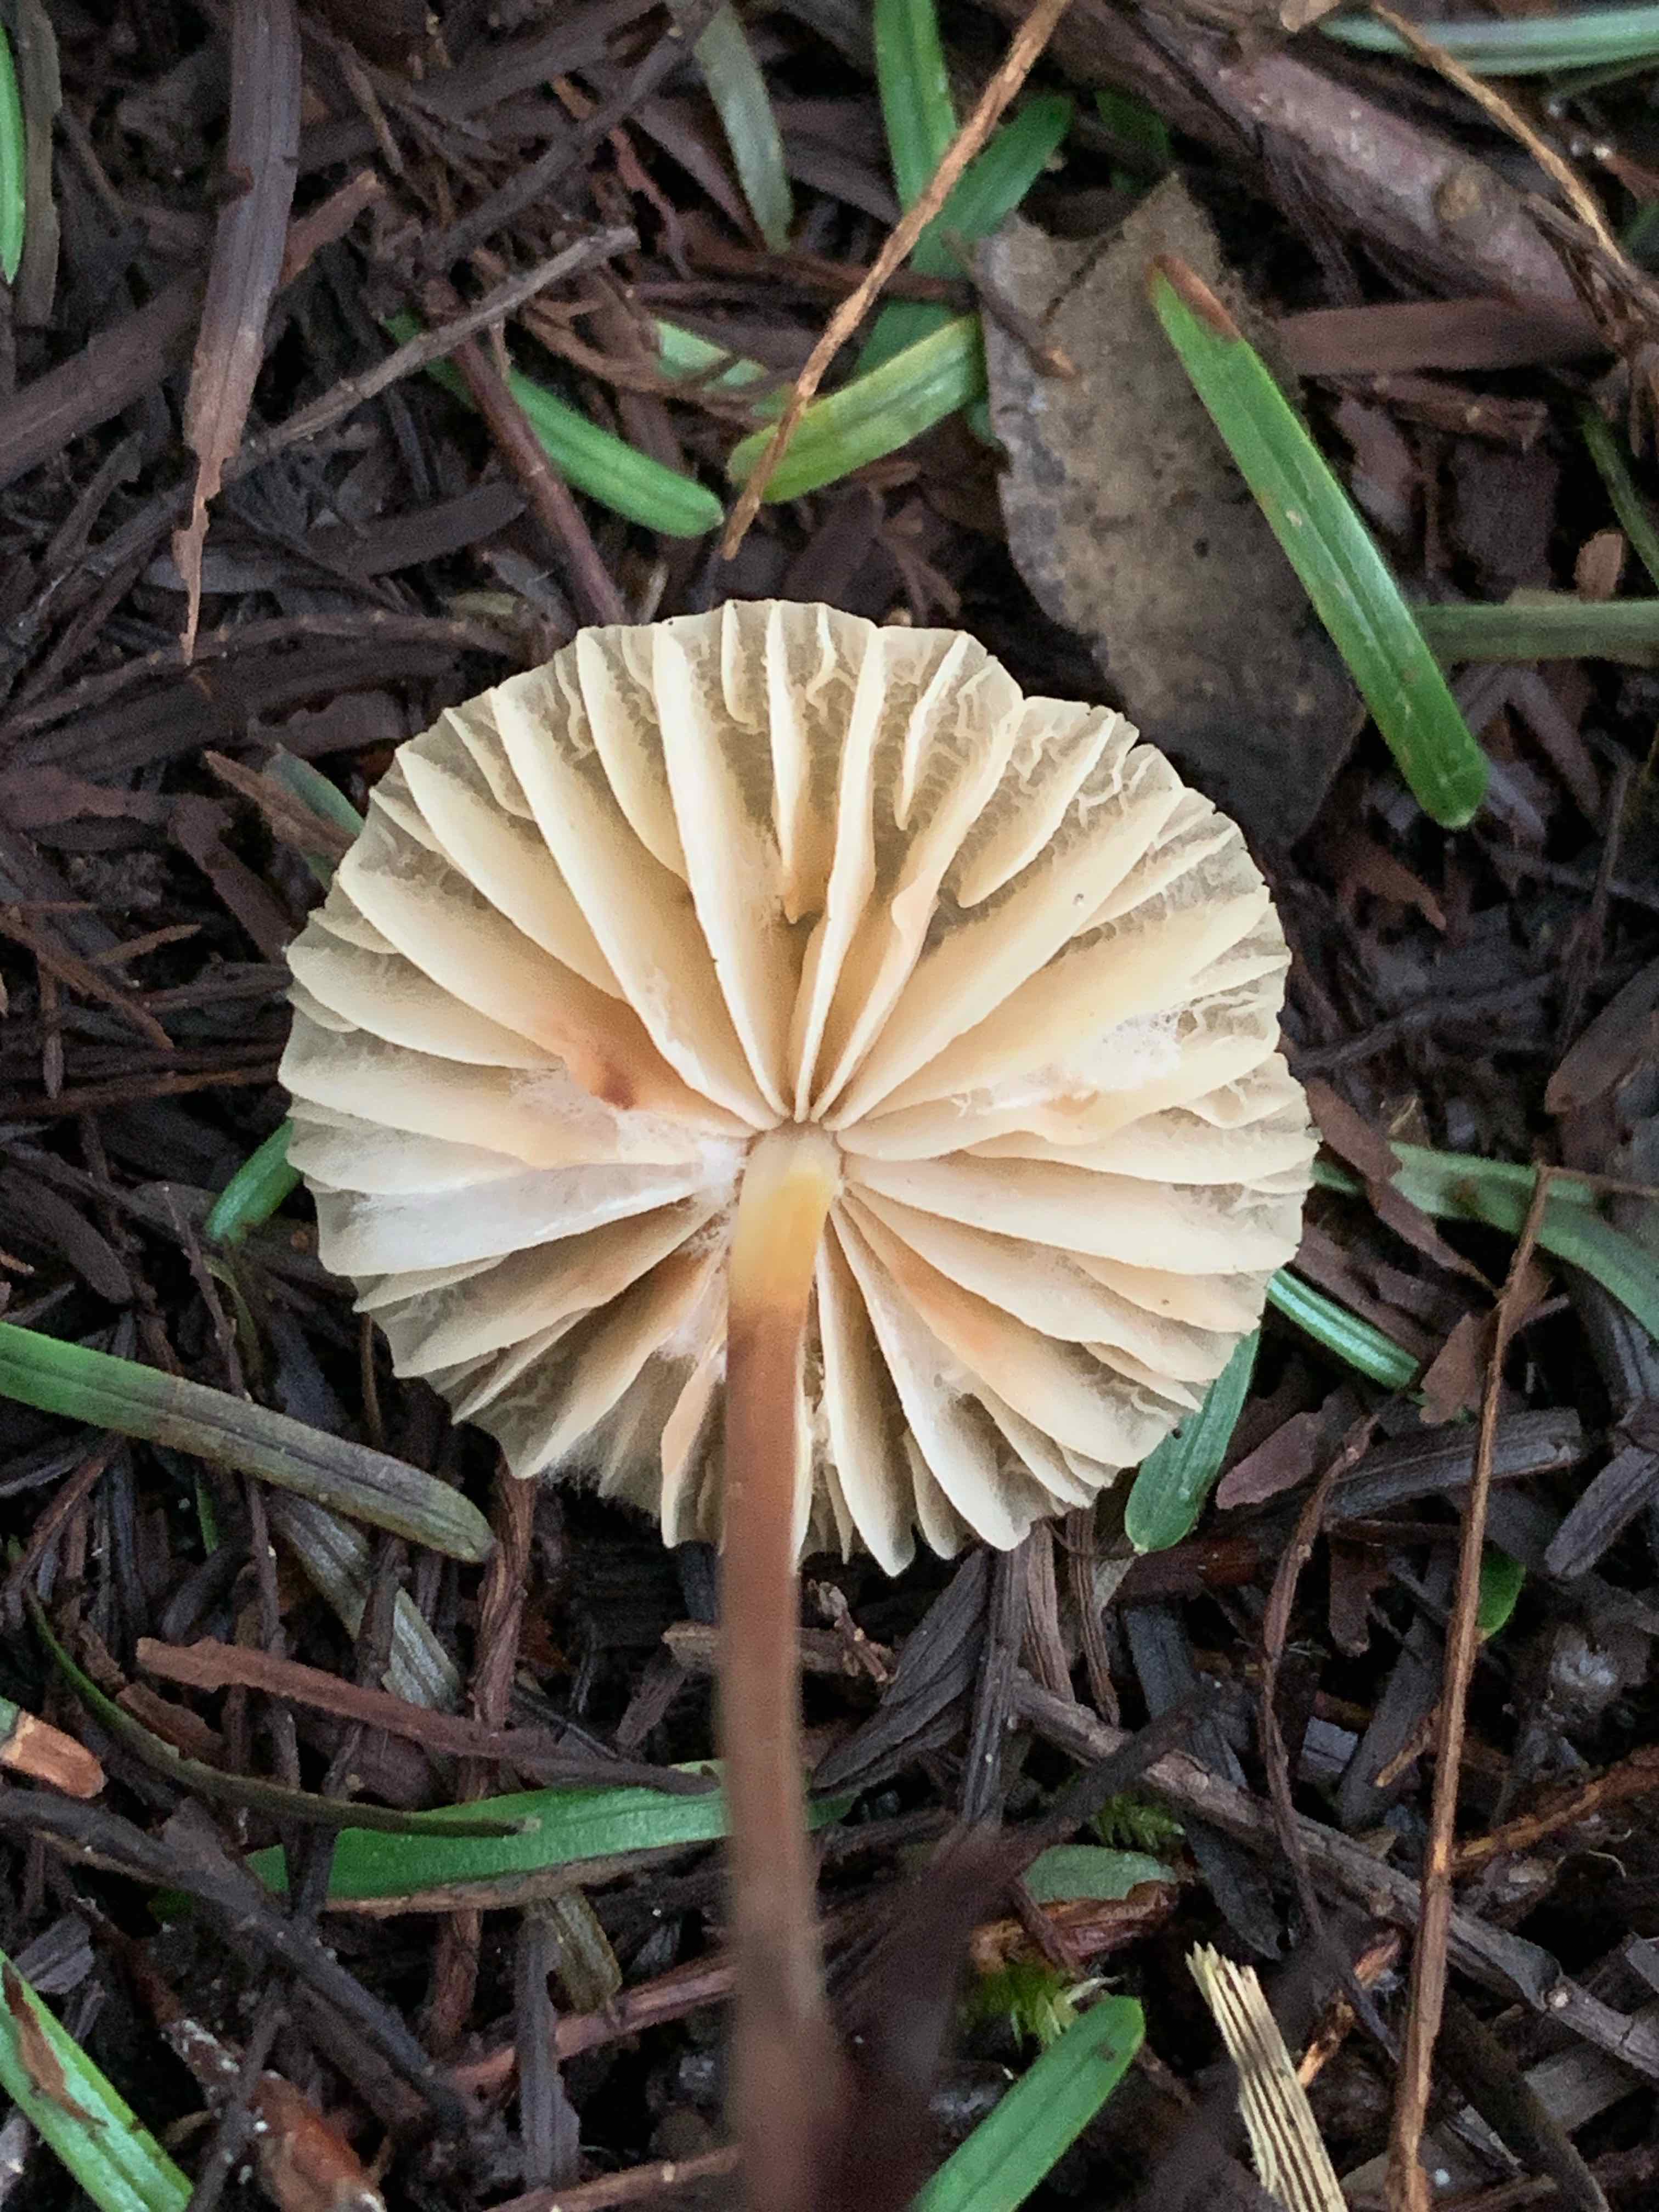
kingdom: Fungi
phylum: Basidiomycota
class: Agaricomycetes
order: Agaricales
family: Marasmiaceae
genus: Marasmius
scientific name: Marasmius torquescens
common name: filtfodet bruskhat
